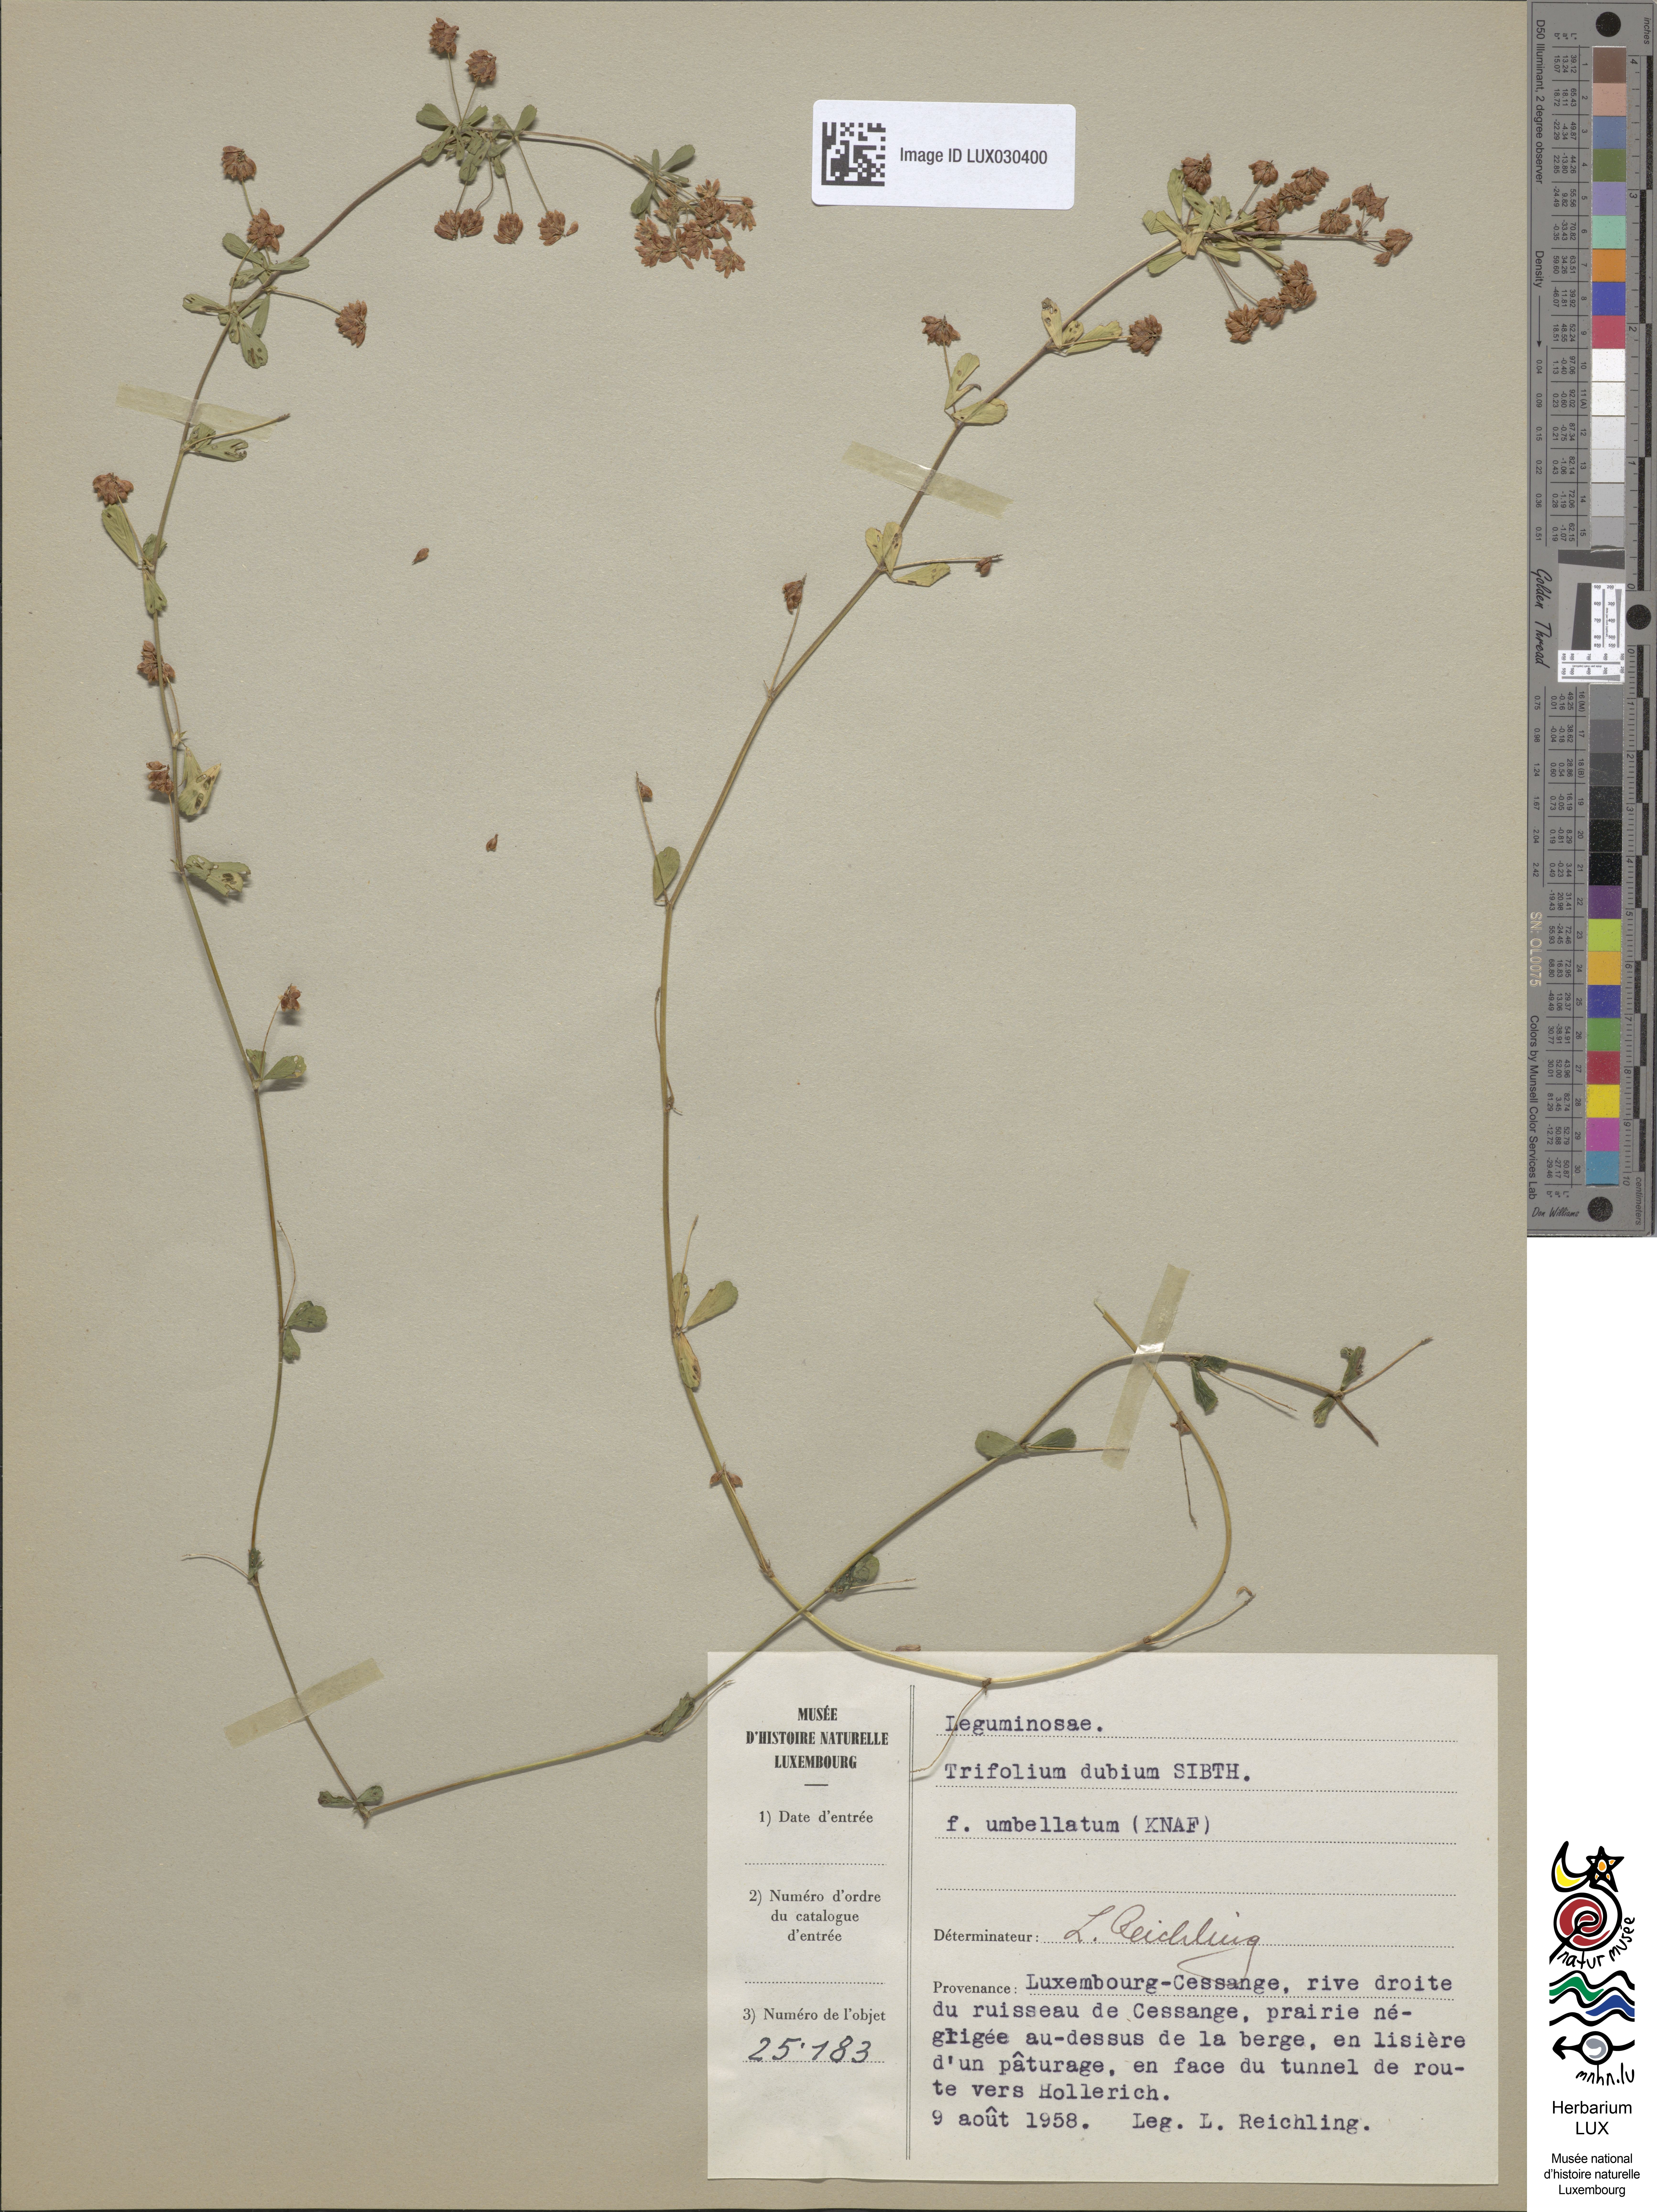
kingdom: Plantae
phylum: Tracheophyta
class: Magnoliopsida
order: Fabales
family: Fabaceae
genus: Trifolium
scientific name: Trifolium dubium
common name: Suckling clover
